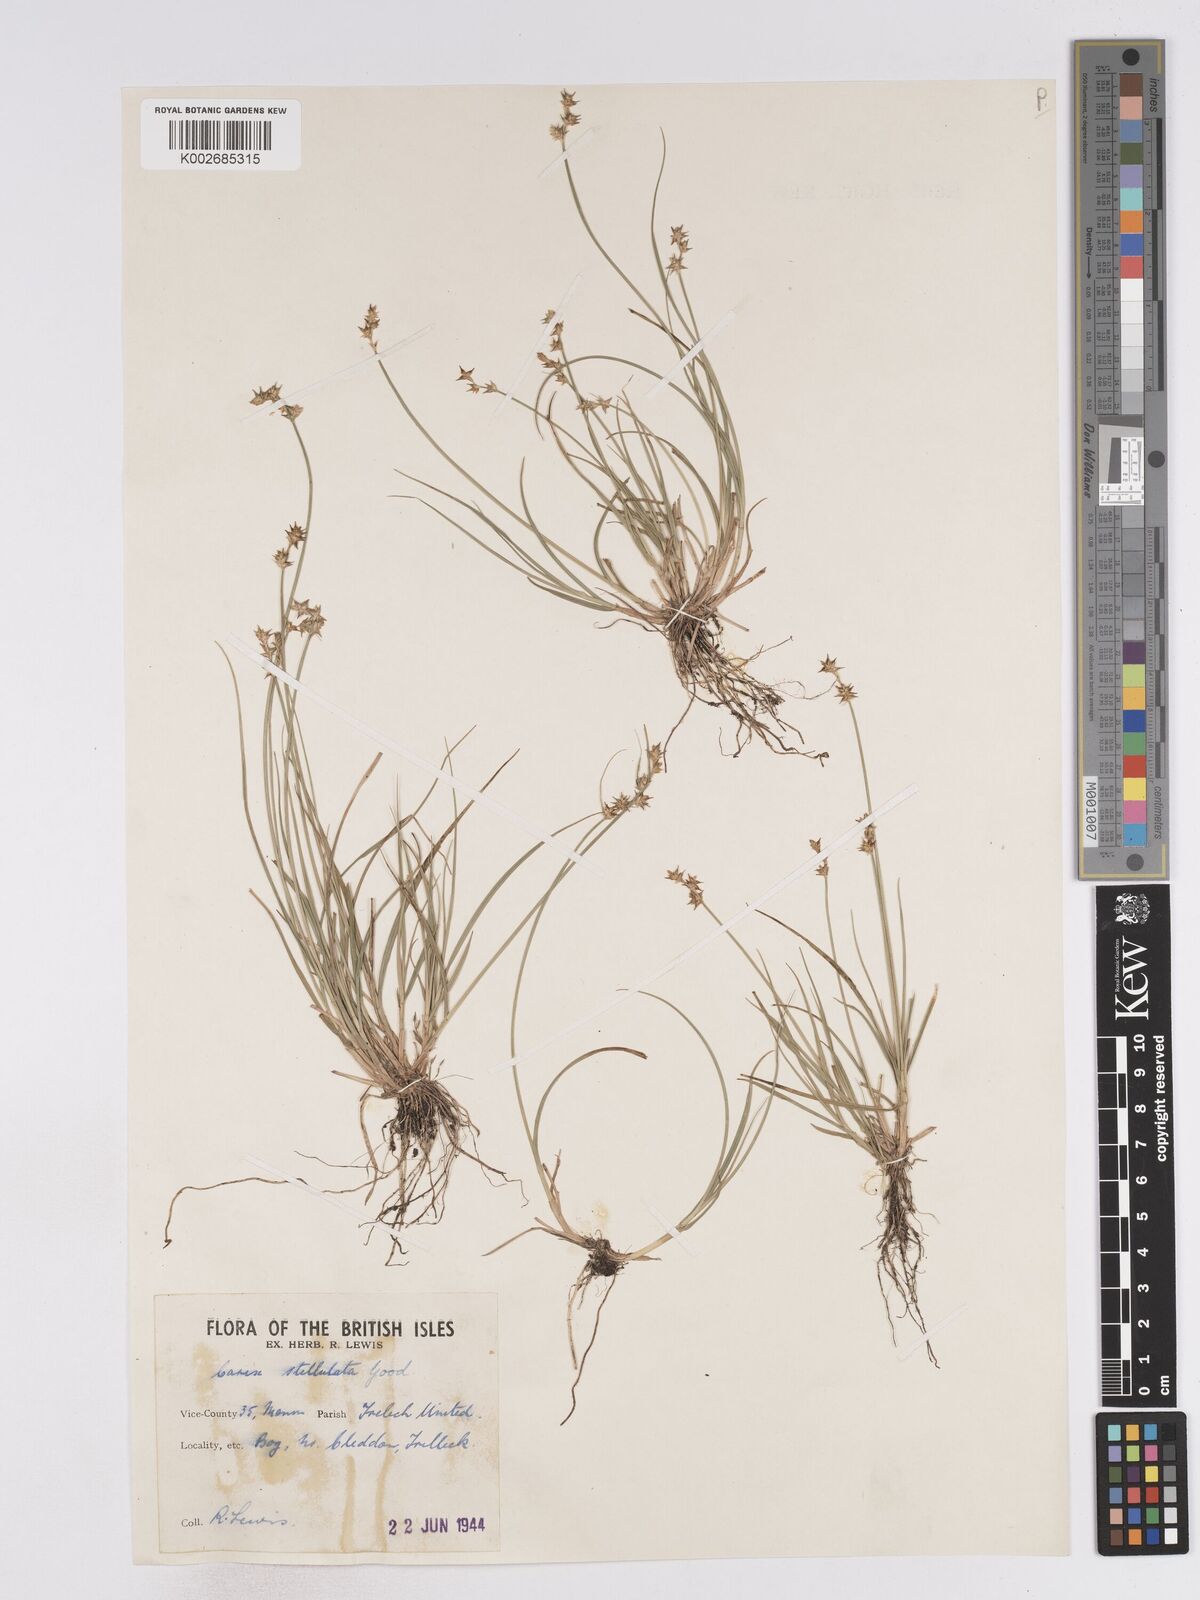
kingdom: Plantae
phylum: Tracheophyta
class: Liliopsida
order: Poales
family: Cyperaceae
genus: Carex
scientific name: Carex echinata
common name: Star sedge
